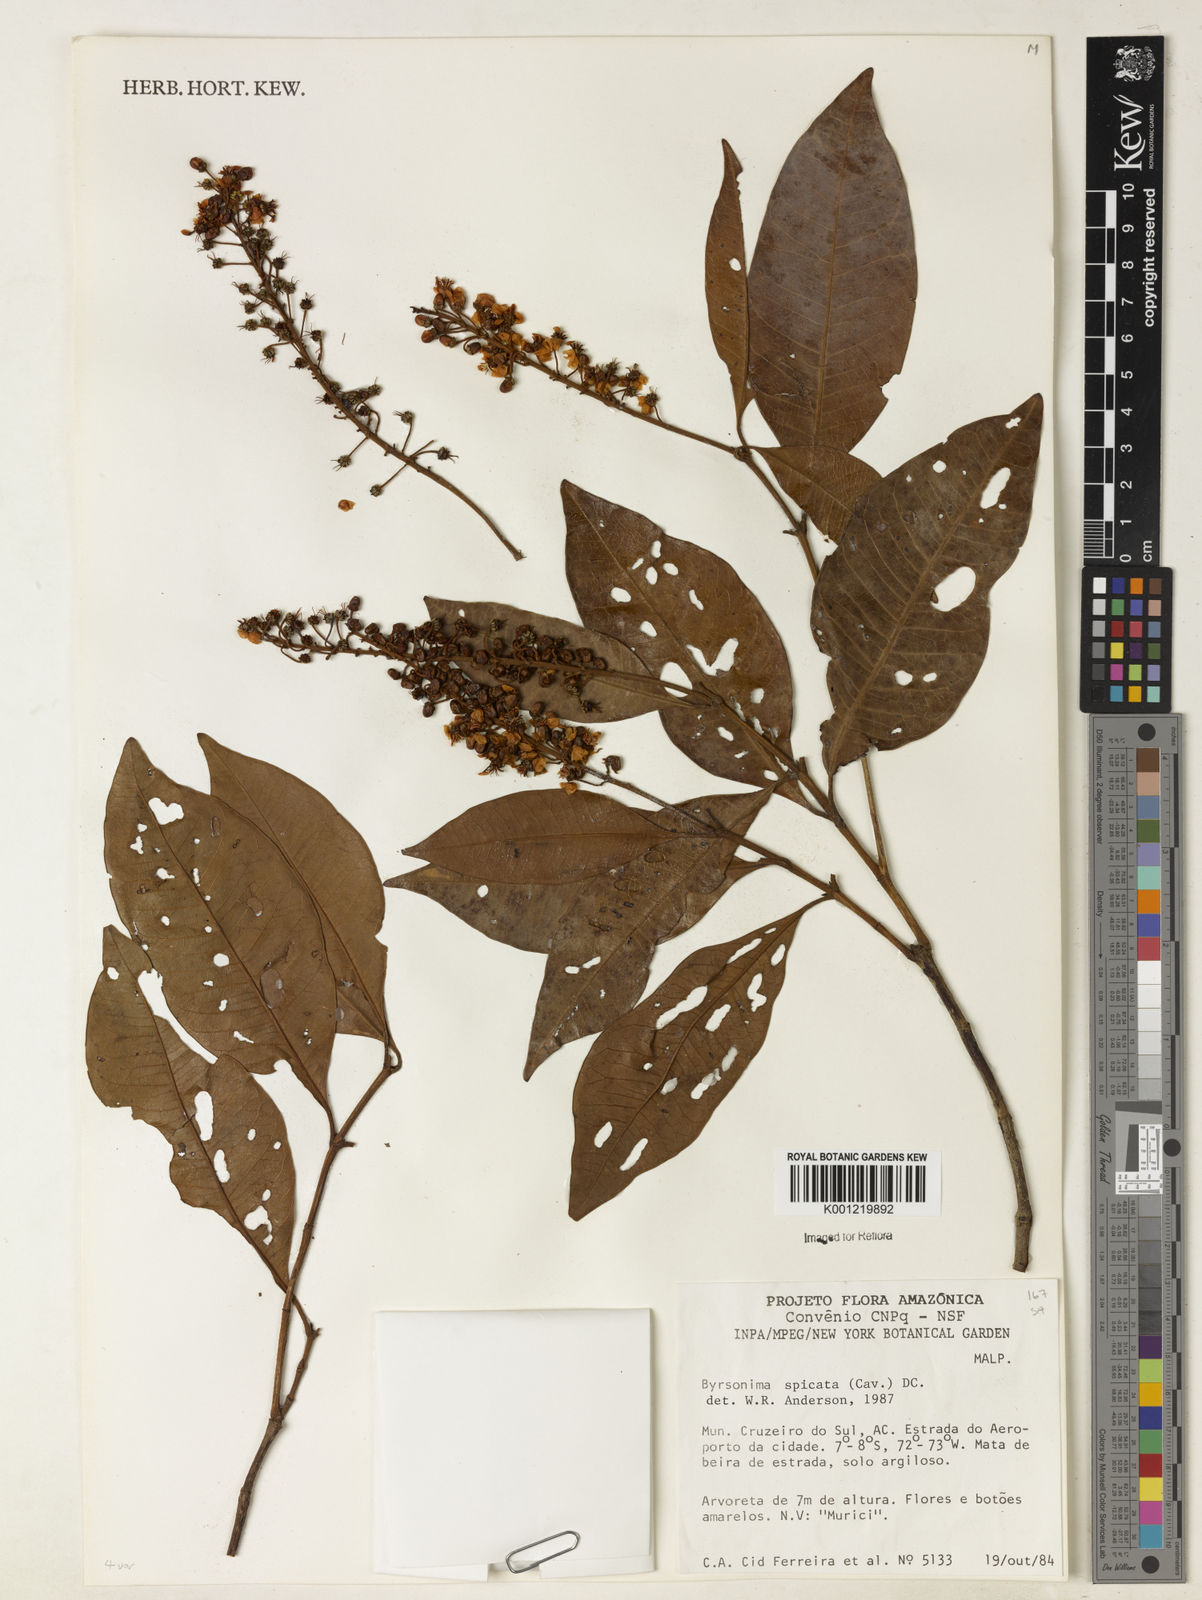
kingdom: Plantae
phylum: Tracheophyta
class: Magnoliopsida
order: Malpighiales
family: Malpighiaceae
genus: Byrsonima
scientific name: Byrsonima
